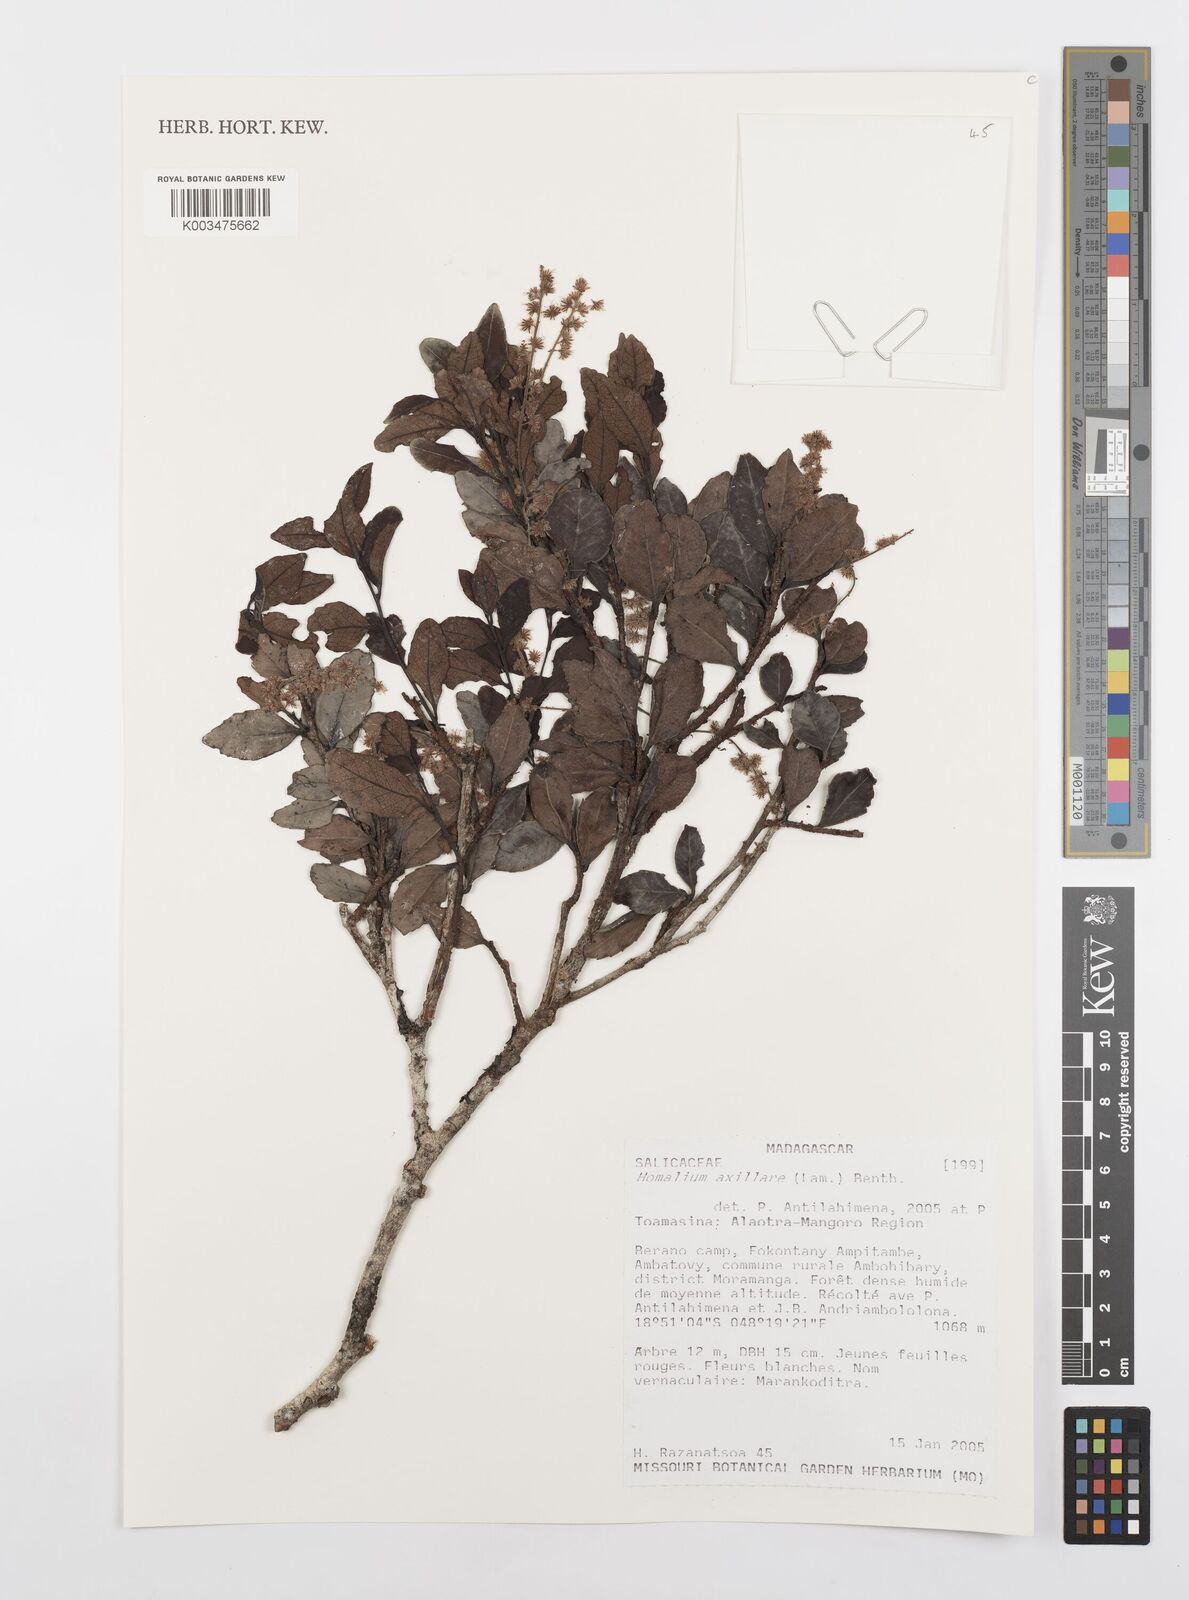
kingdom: Plantae
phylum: Tracheophyta
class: Magnoliopsida
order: Malpighiales
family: Salicaceae
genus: Homalium
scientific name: Homalium axillare
